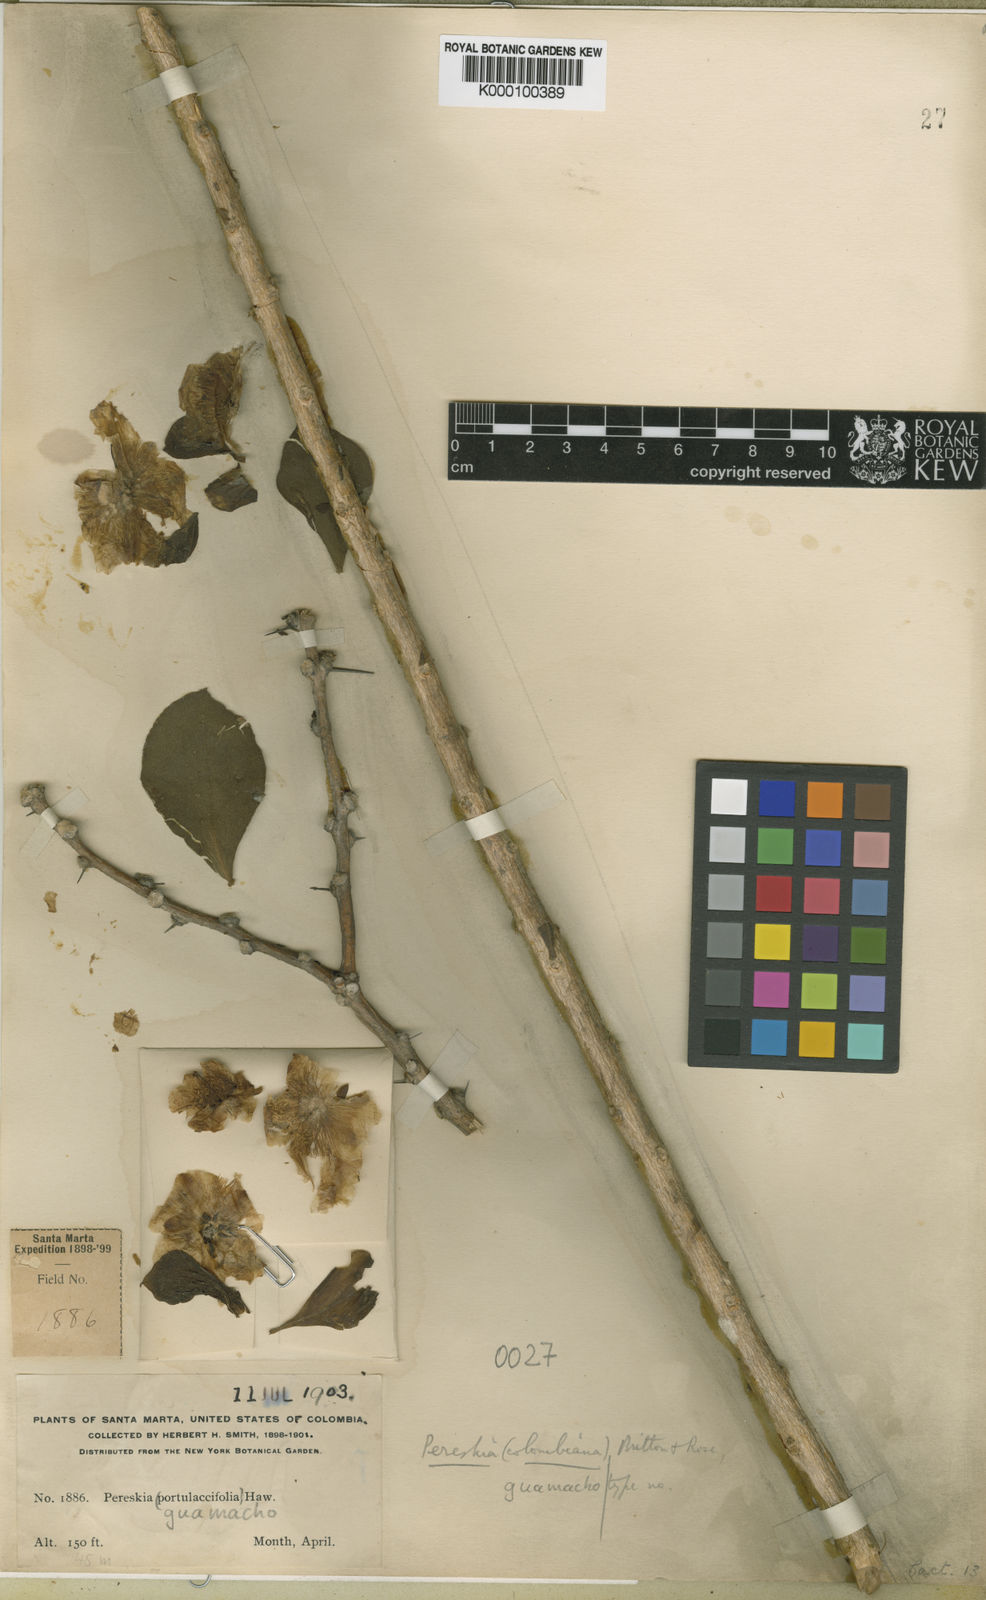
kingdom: Plantae
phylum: Tracheophyta
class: Magnoliopsida
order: Caryophyllales
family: Cactaceae
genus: Leuenbergeria
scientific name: Leuenbergeria guamacho
